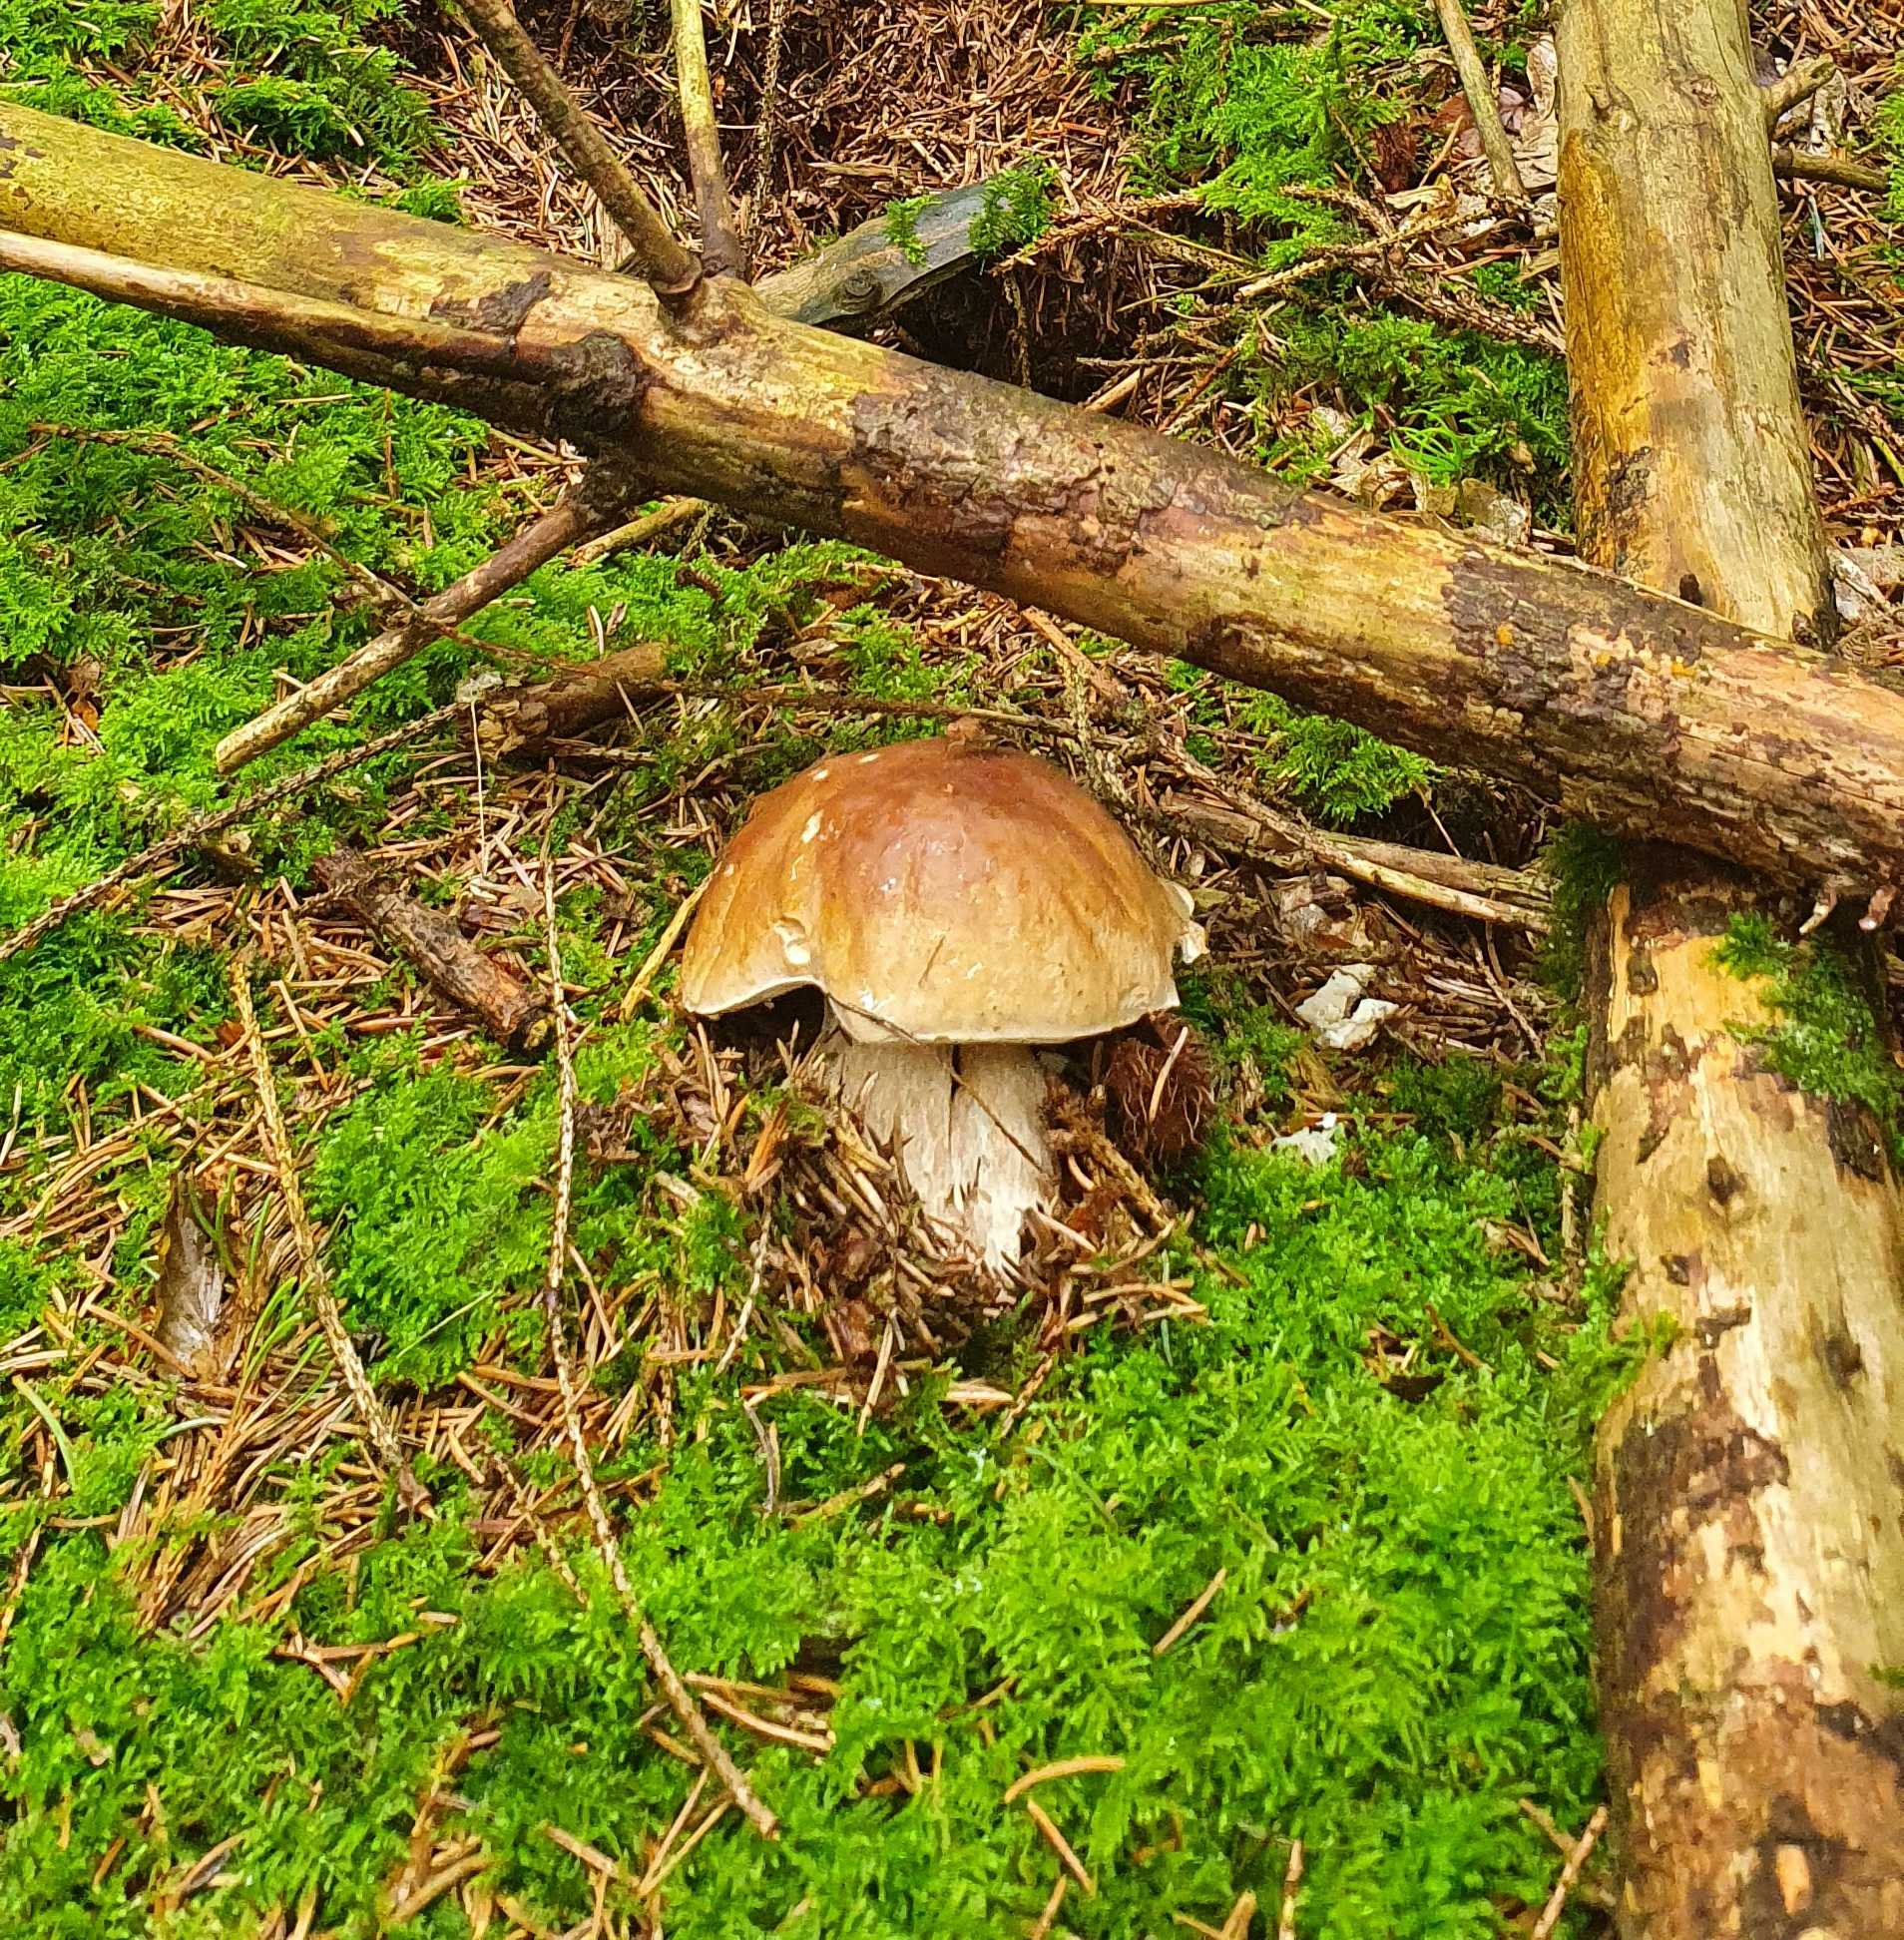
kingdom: Fungi
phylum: Basidiomycota
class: Agaricomycetes
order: Boletales
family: Boletaceae
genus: Boletus
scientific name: Boletus edulis
